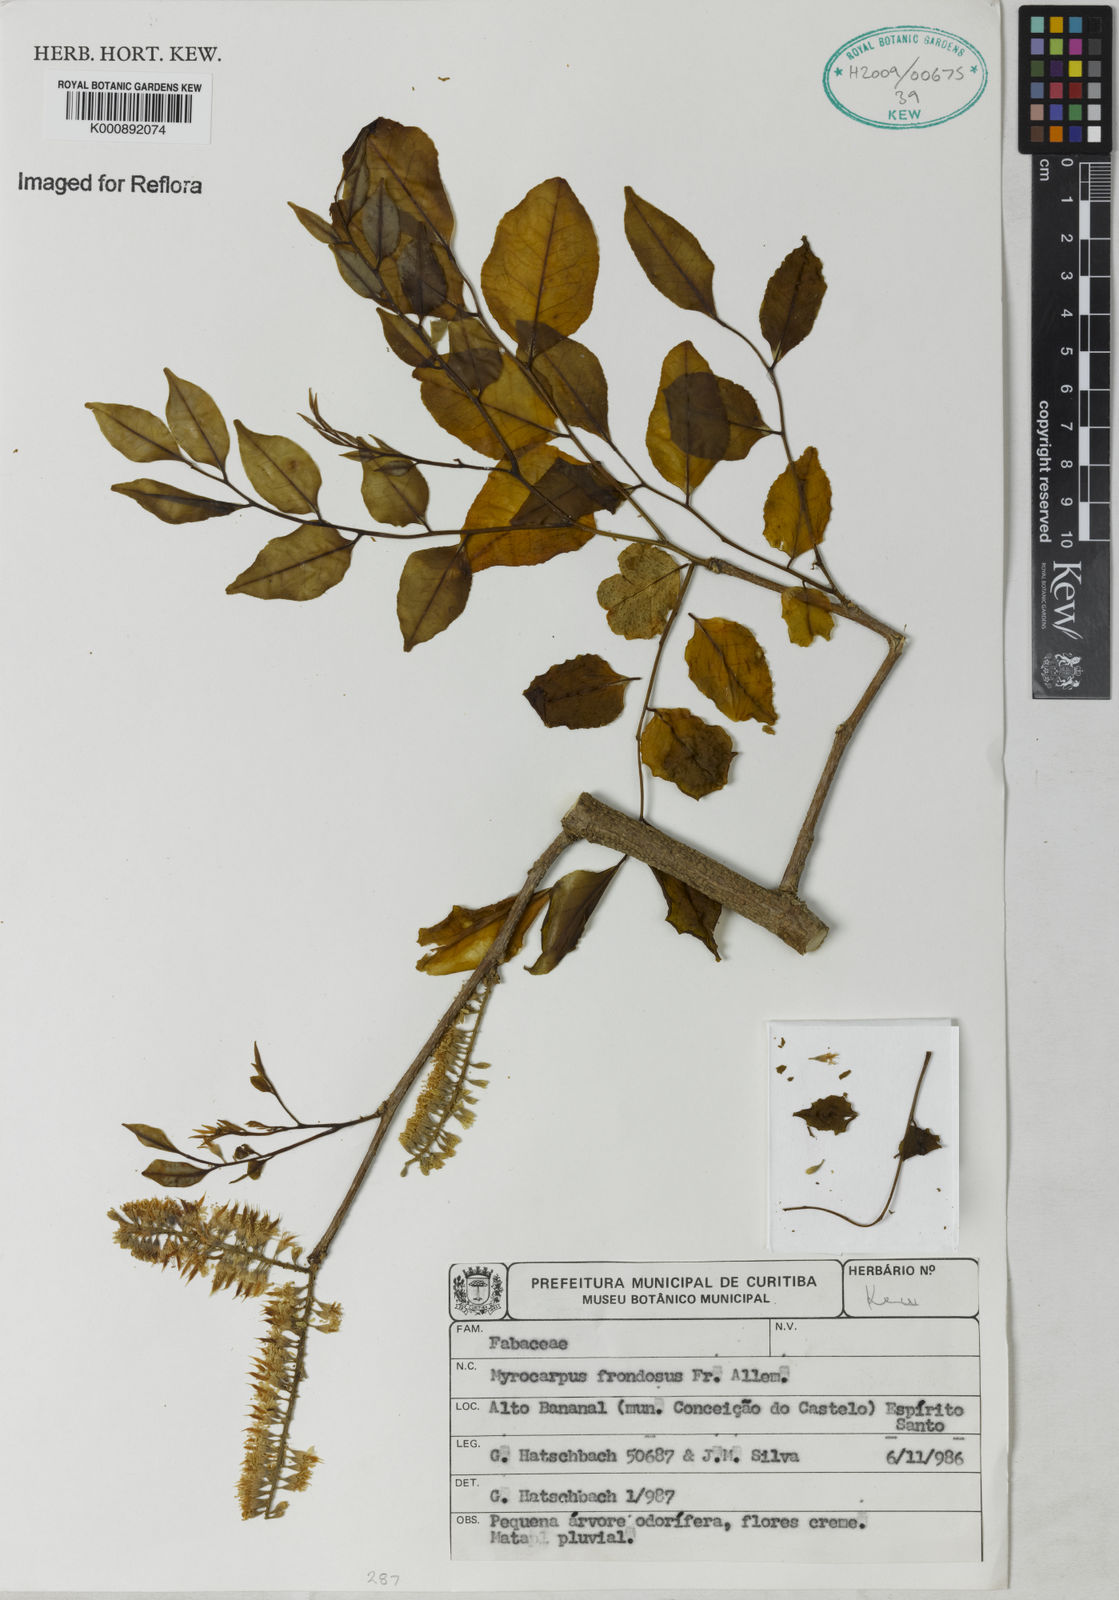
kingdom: Plantae
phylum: Tracheophyta
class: Magnoliopsida
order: Fabales
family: Fabaceae
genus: Myrocarpus
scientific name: Myrocarpus
